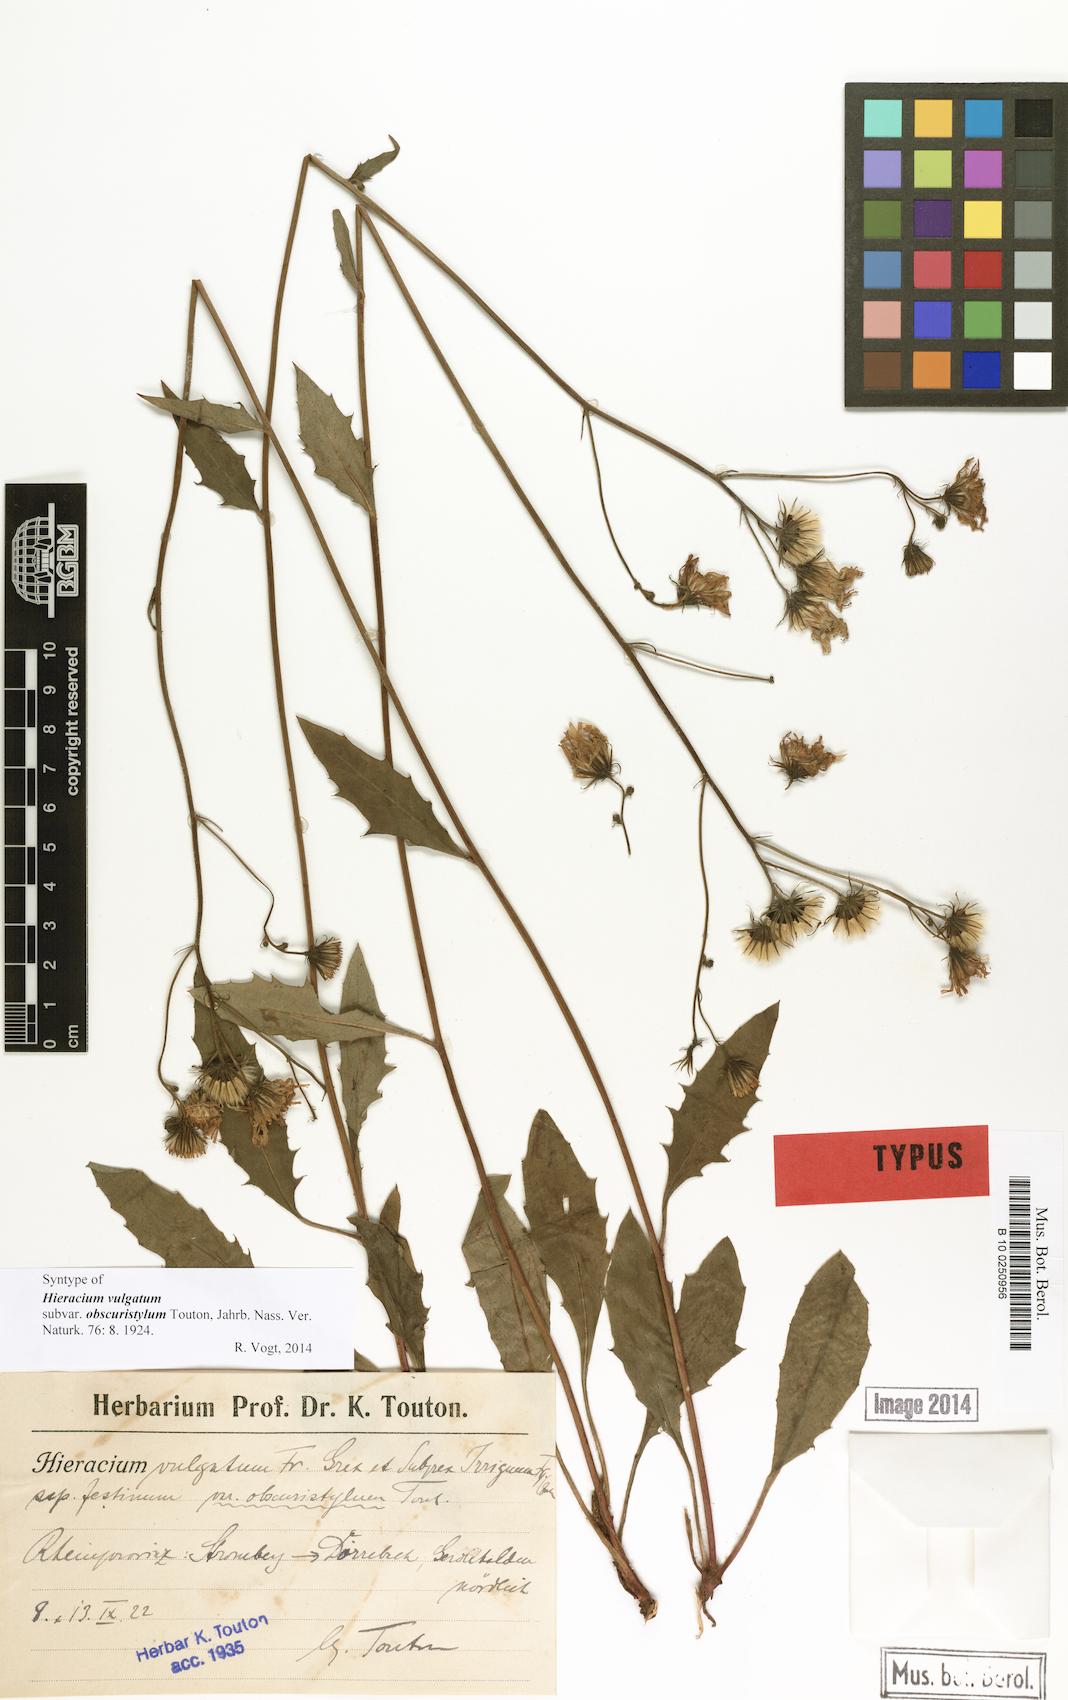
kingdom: Plantae
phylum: Tracheophyta
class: Magnoliopsida
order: Asterales
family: Asteraceae
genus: Hieracium
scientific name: Hieracium vulgatum
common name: Common hawkweed
